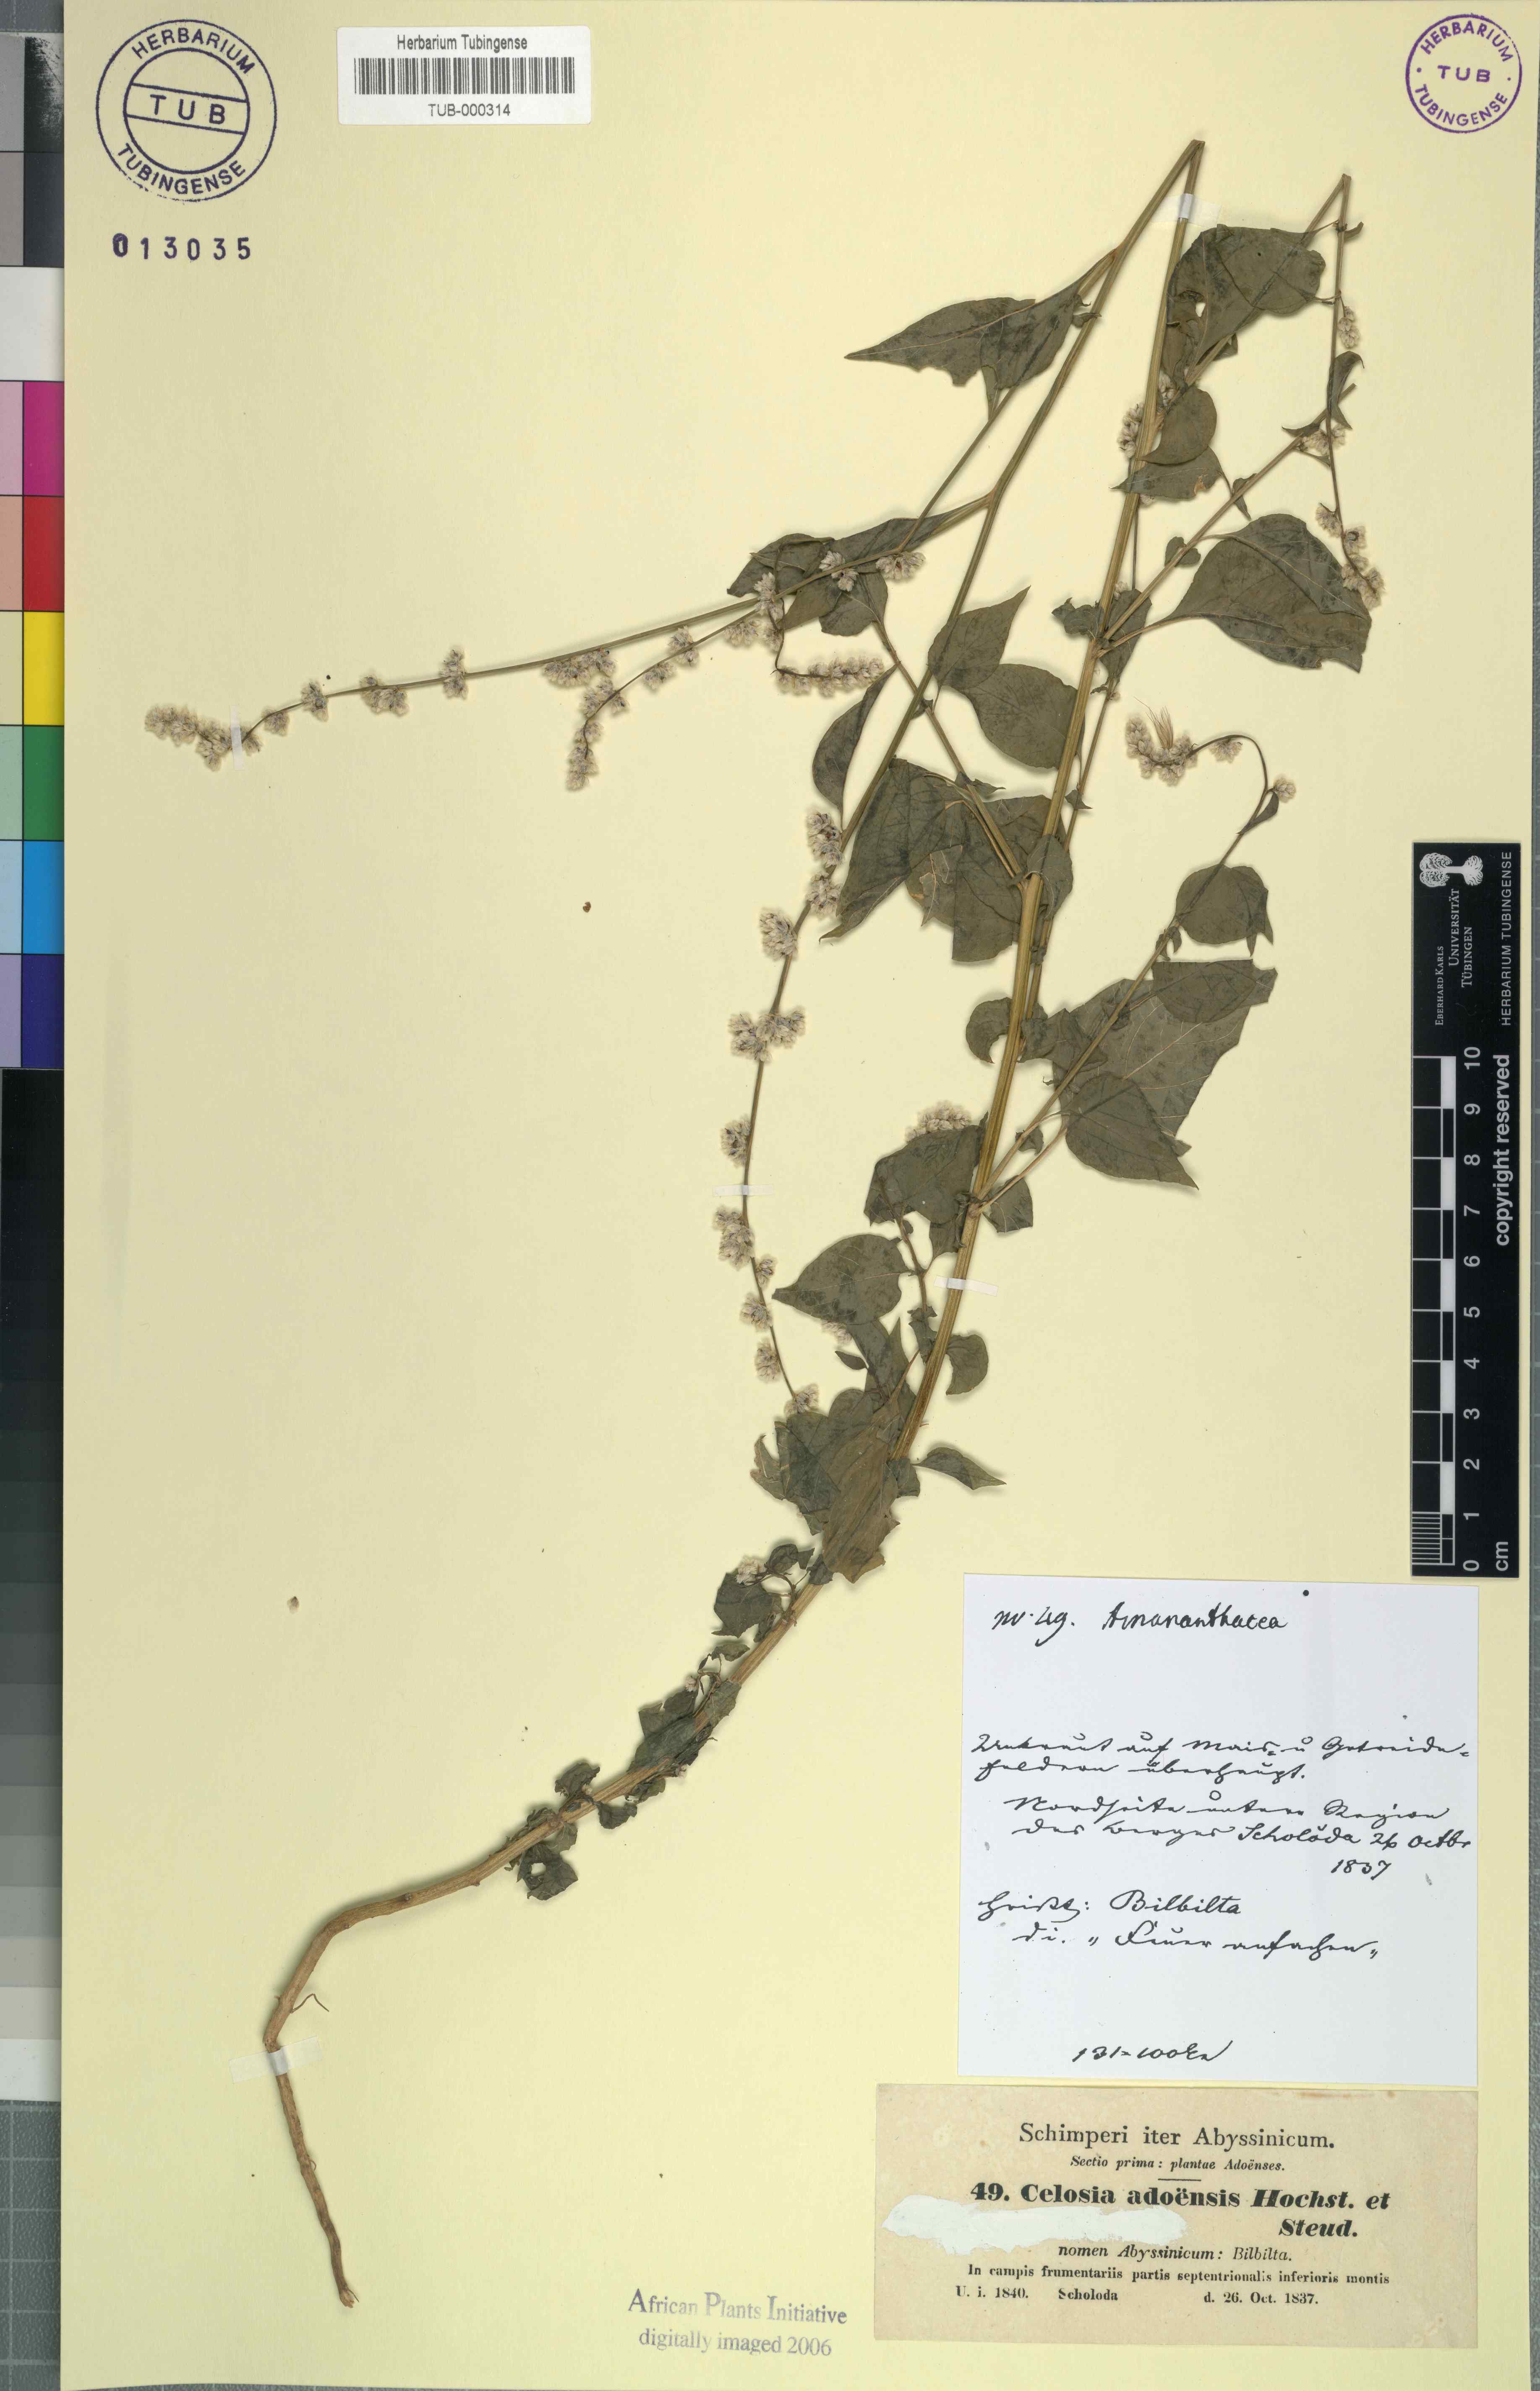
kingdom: Plantae
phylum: Tracheophyta
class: Magnoliopsida
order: Caryophyllales
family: Amaranthaceae
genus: Celosia
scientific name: Celosia trigyna
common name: Woolflower
